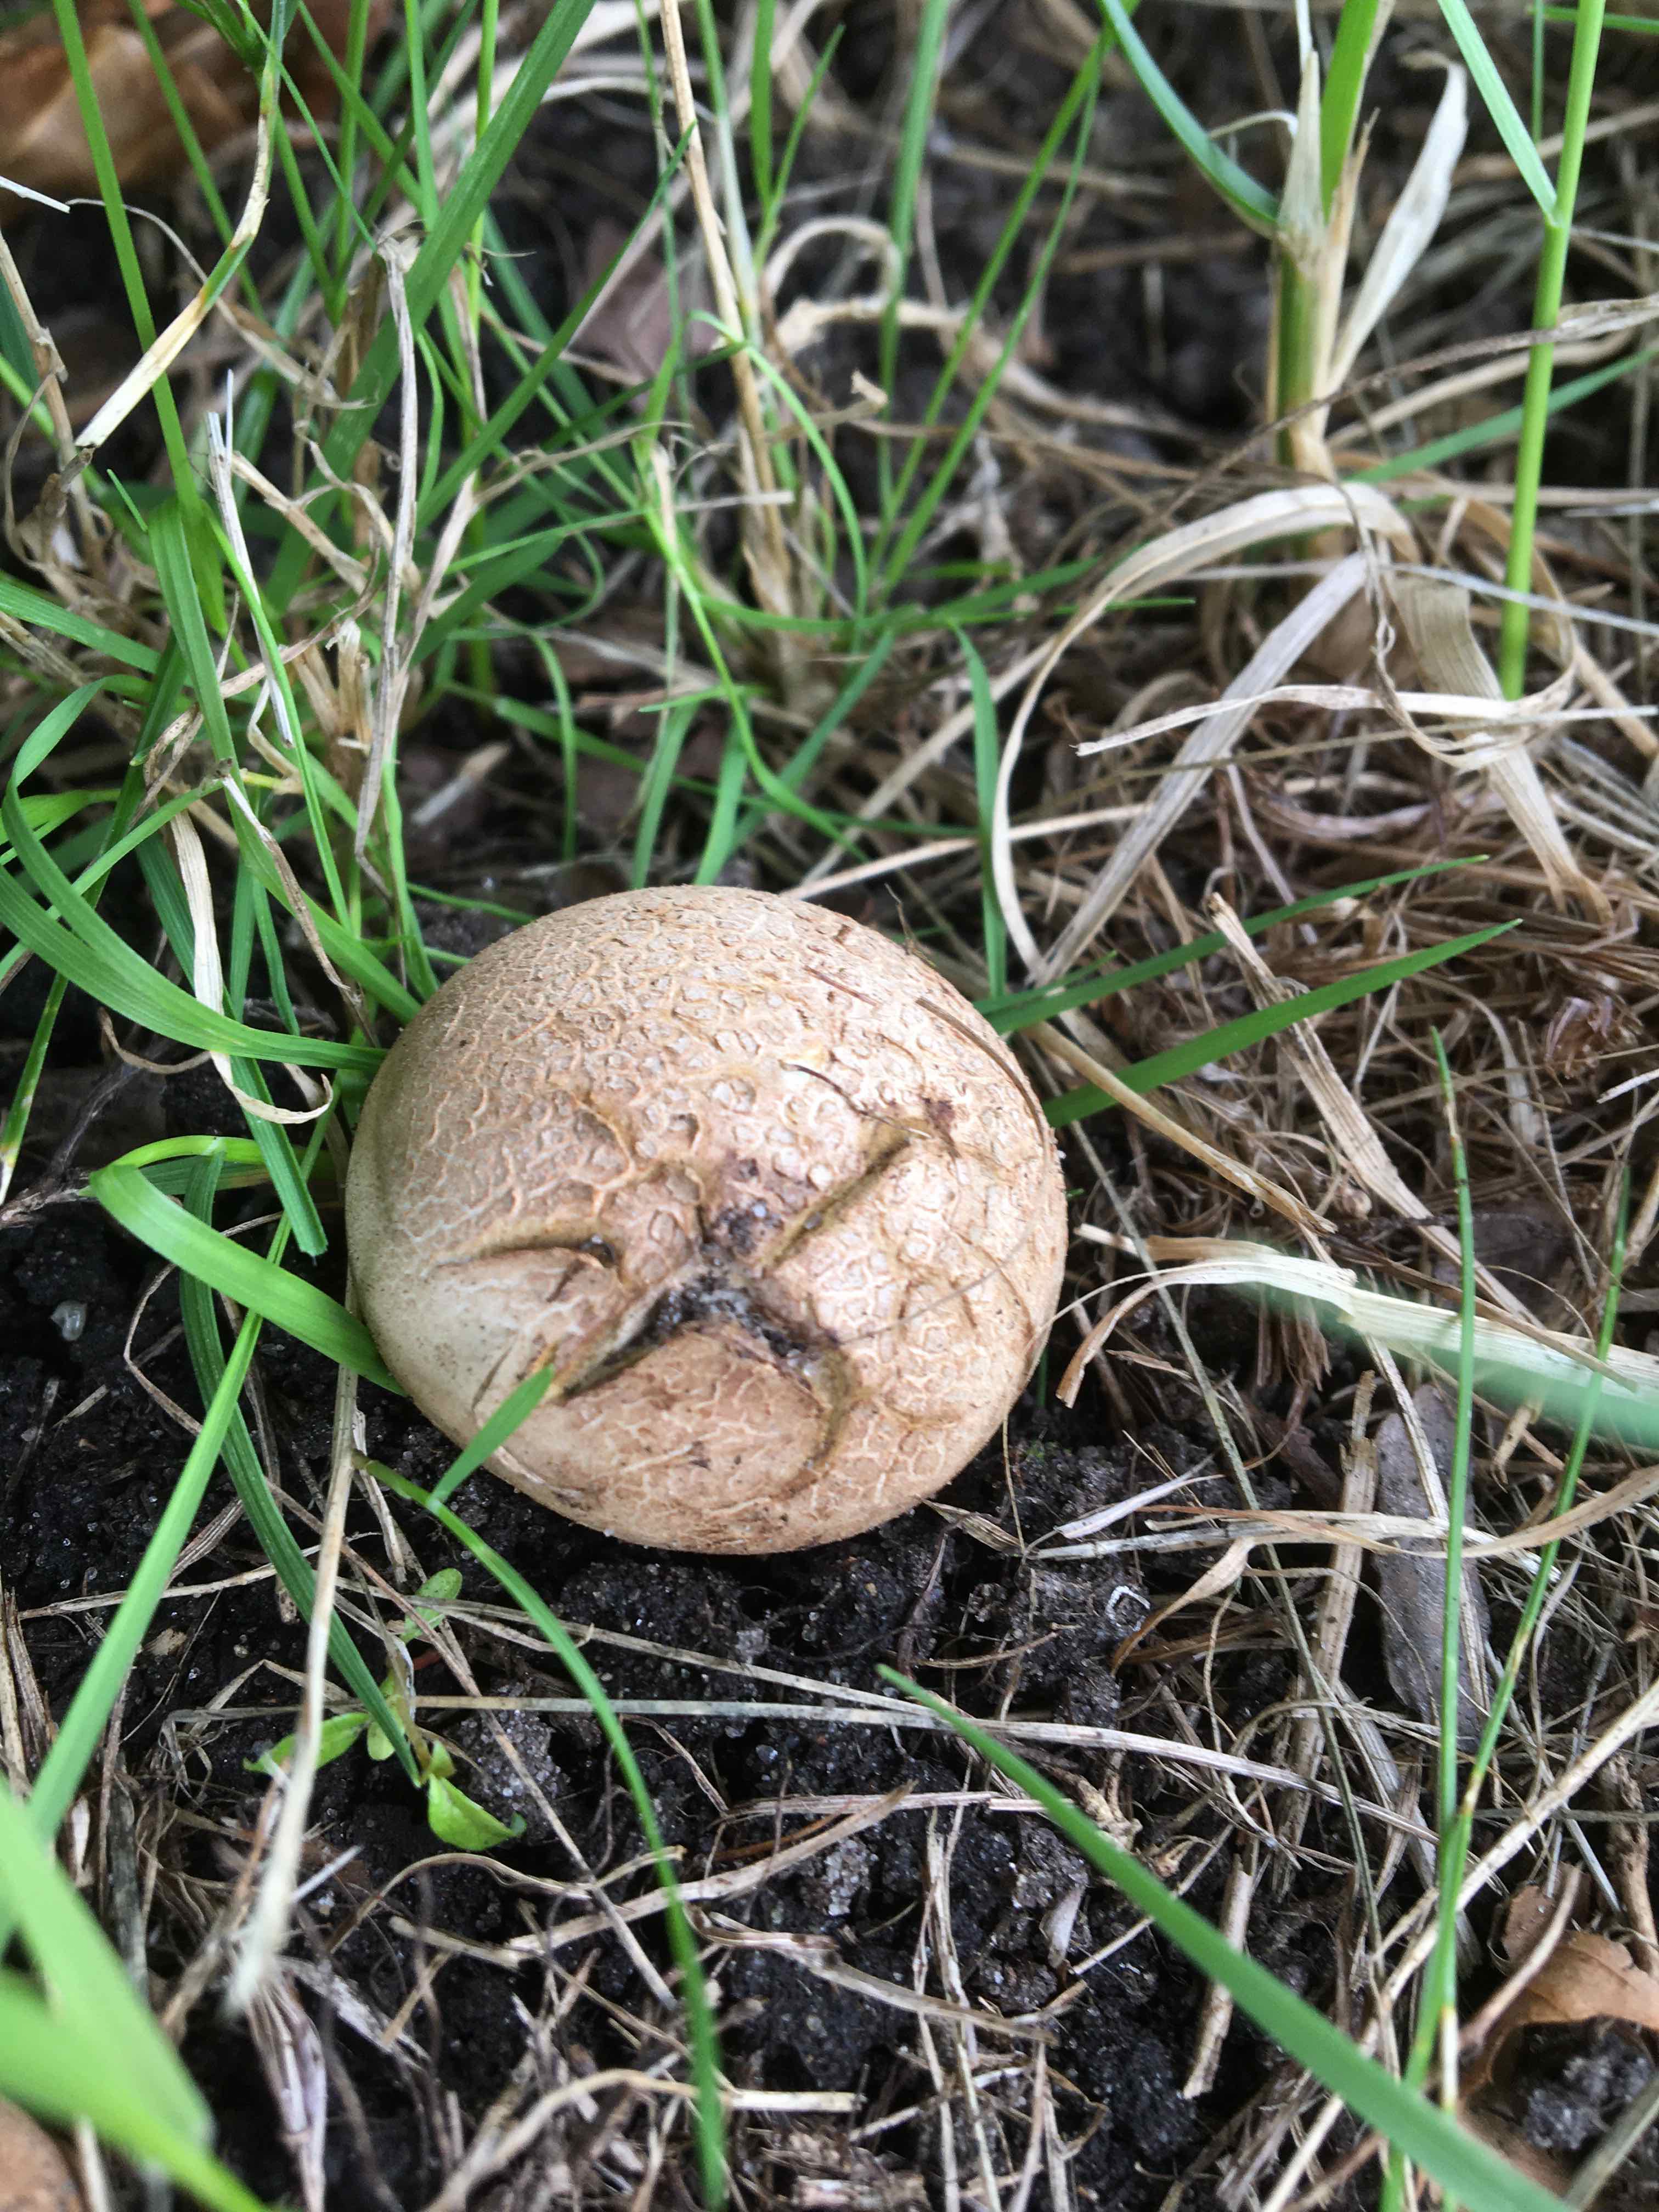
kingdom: Fungi
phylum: Basidiomycota
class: Agaricomycetes
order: Boletales
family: Sclerodermataceae
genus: Scleroderma
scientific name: Scleroderma
